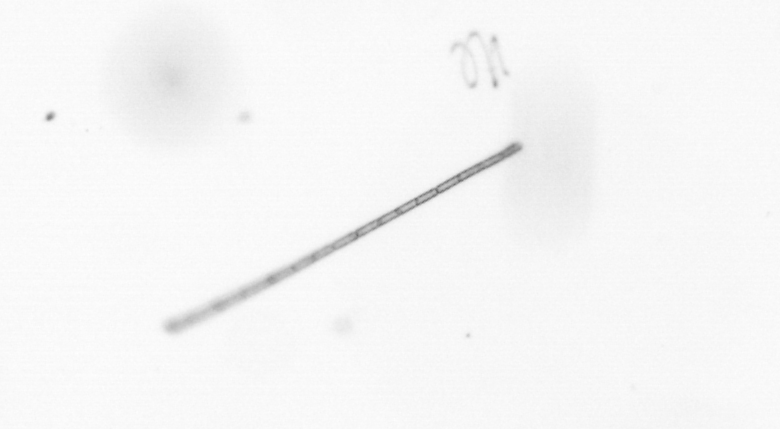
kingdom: Chromista
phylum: Ochrophyta
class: Bacillariophyceae
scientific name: Bacillariophyceae
